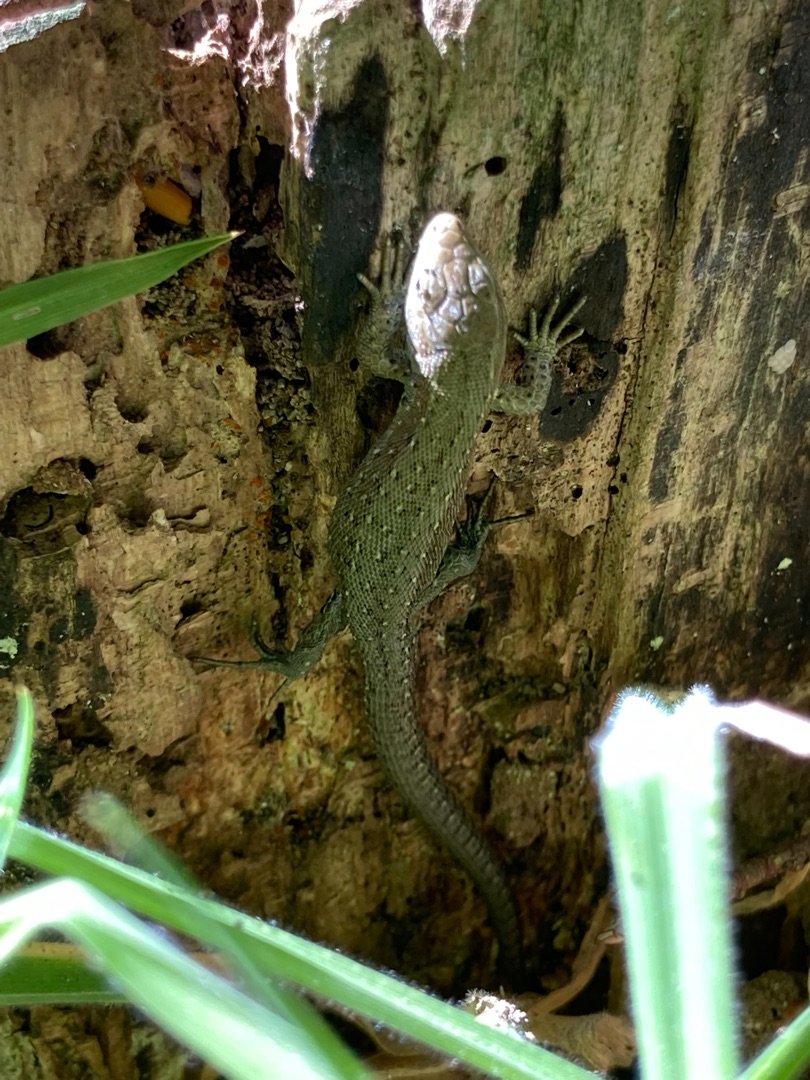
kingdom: Animalia
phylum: Chordata
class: Squamata
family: Lacertidae
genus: Zootoca
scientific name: Zootoca vivipara
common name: Skovfirben
